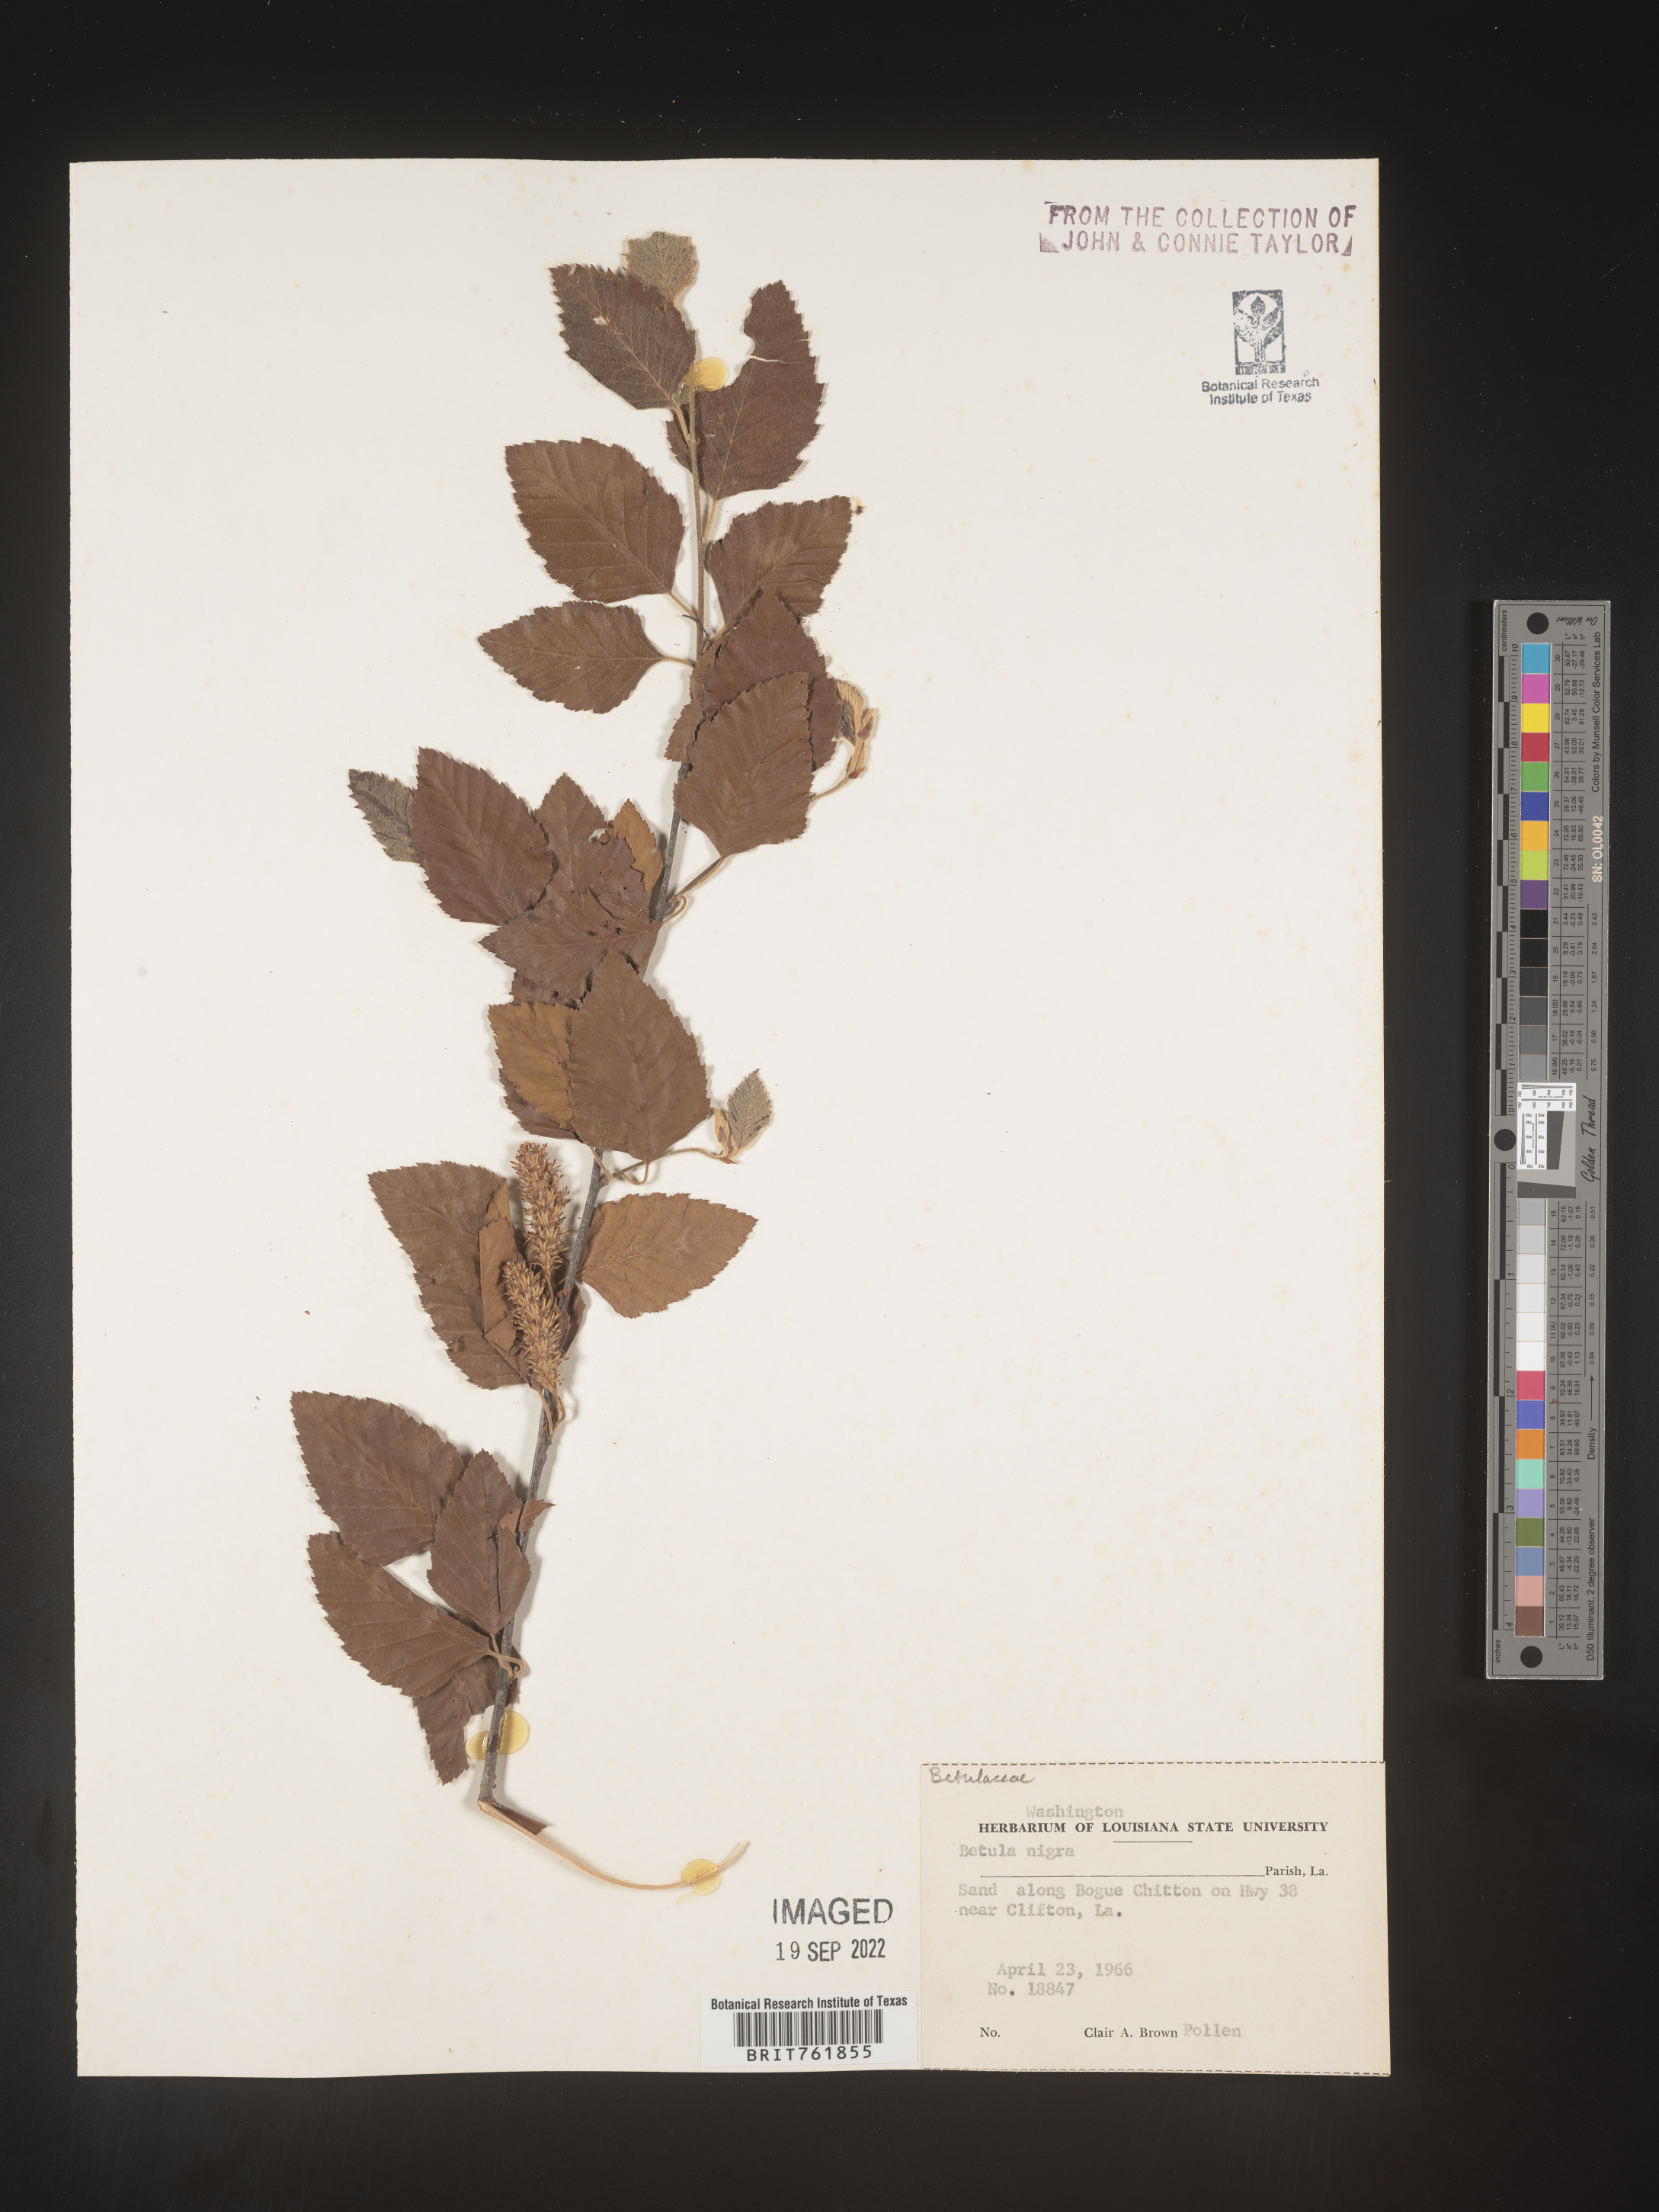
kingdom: Plantae
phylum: Tracheophyta
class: Magnoliopsida
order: Fagales
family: Betulaceae
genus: Betula
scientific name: Betula nigra
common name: Black birch
